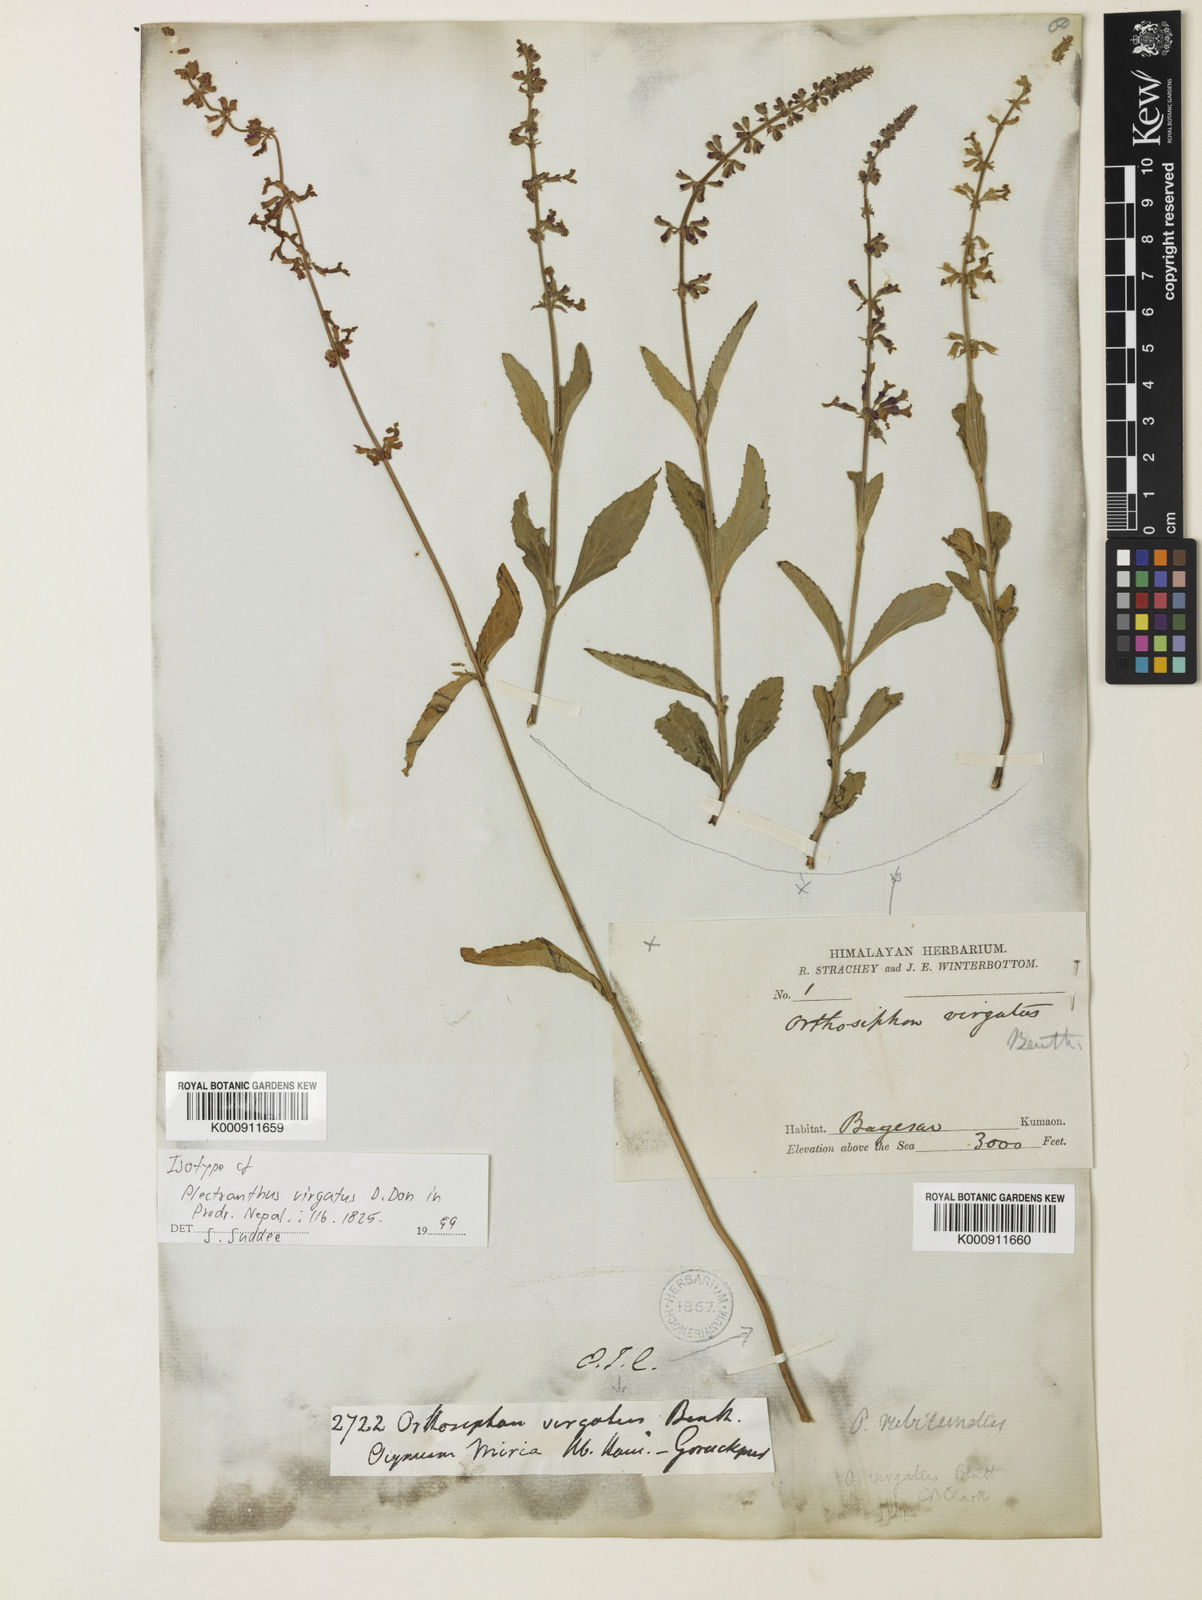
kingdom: Plantae
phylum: Tracheophyta
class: Magnoliopsida
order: Lamiales
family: Lamiaceae
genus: Orthosiphon
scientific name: Orthosiphon rubicundus
